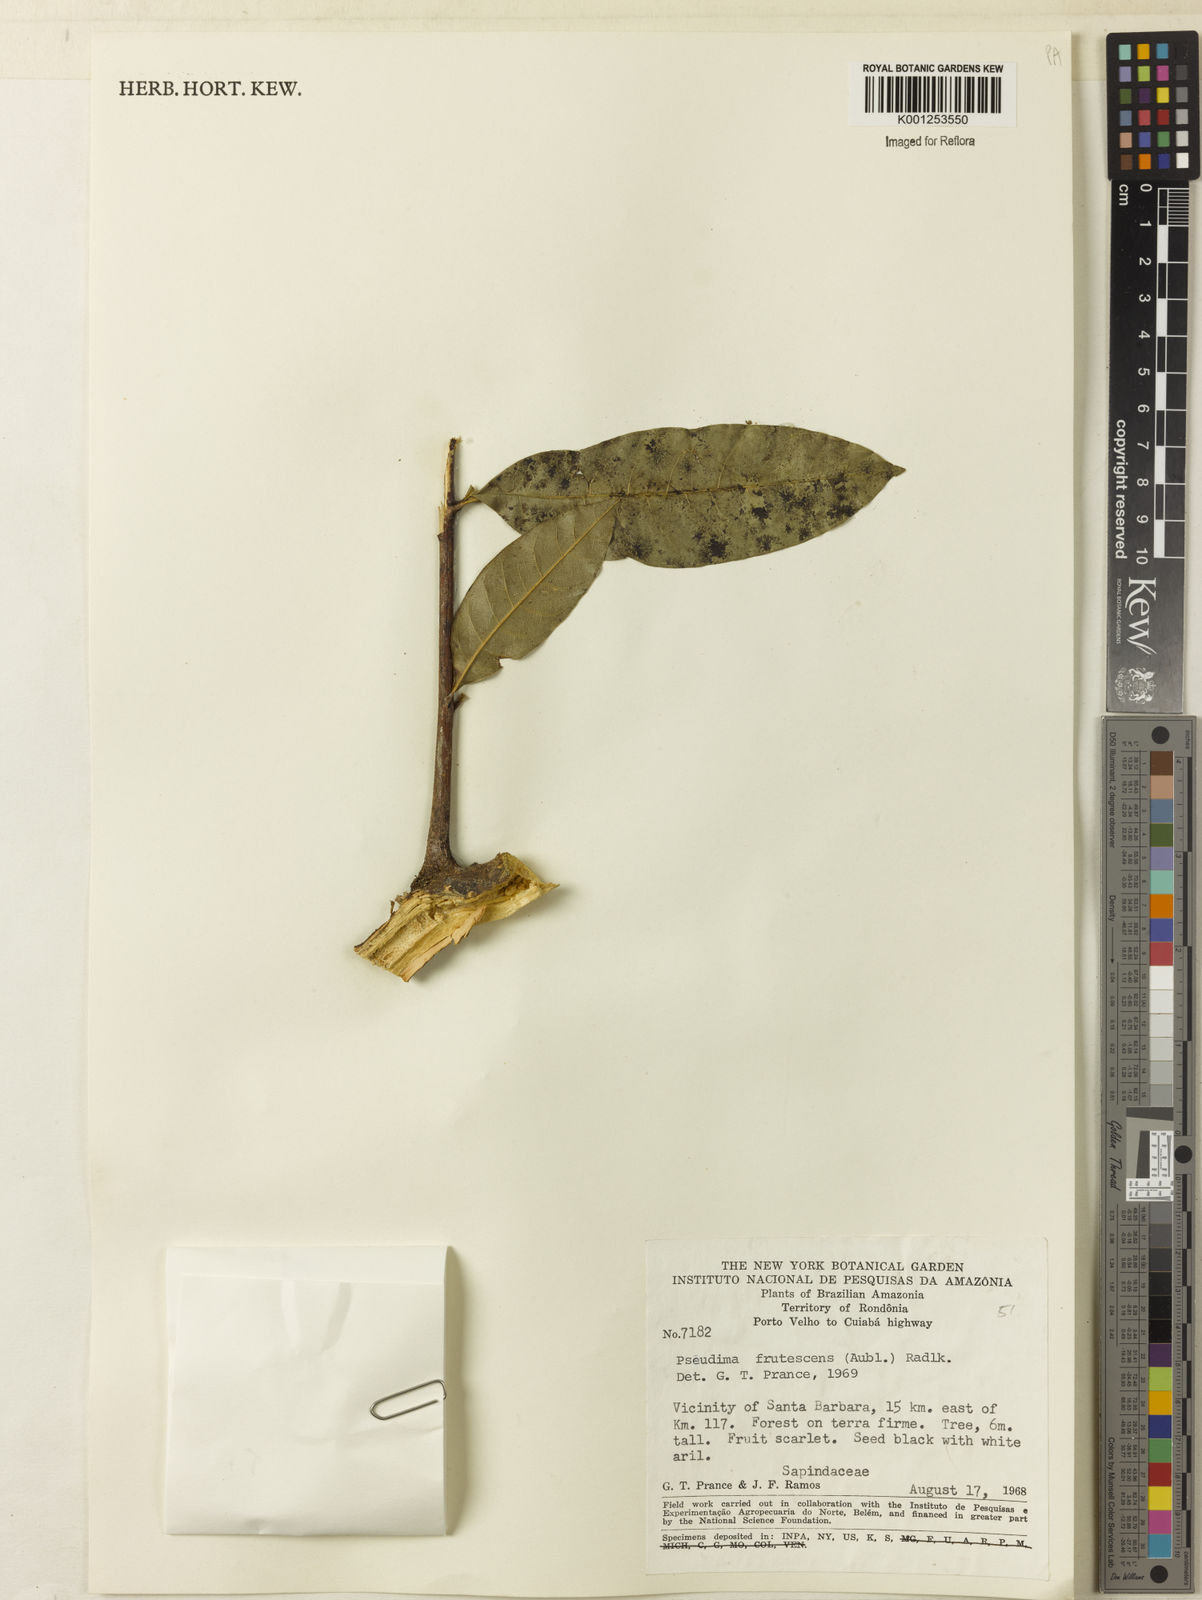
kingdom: Plantae
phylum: Tracheophyta
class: Magnoliopsida
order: Sapindales
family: Sapindaceae
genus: Pseudima
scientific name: Pseudima frutescens
